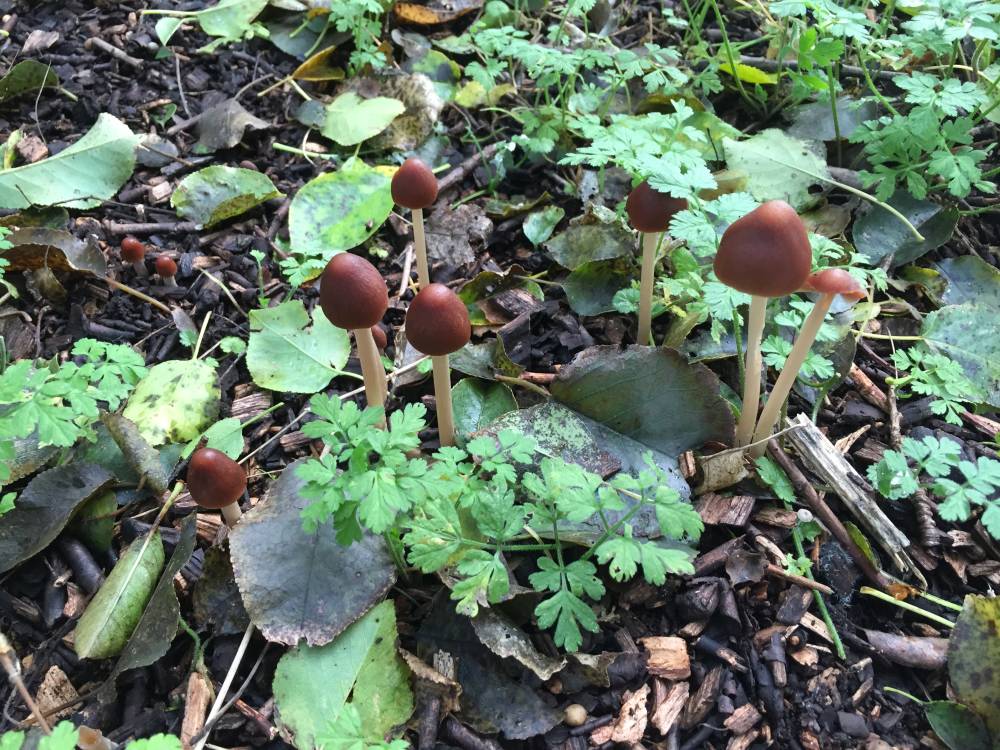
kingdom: Fungi
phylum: Basidiomycota
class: Agaricomycetes
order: Agaricales
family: Psathyrellaceae
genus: Parasola
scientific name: Parasola conopilea
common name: kegle-hjulhat
